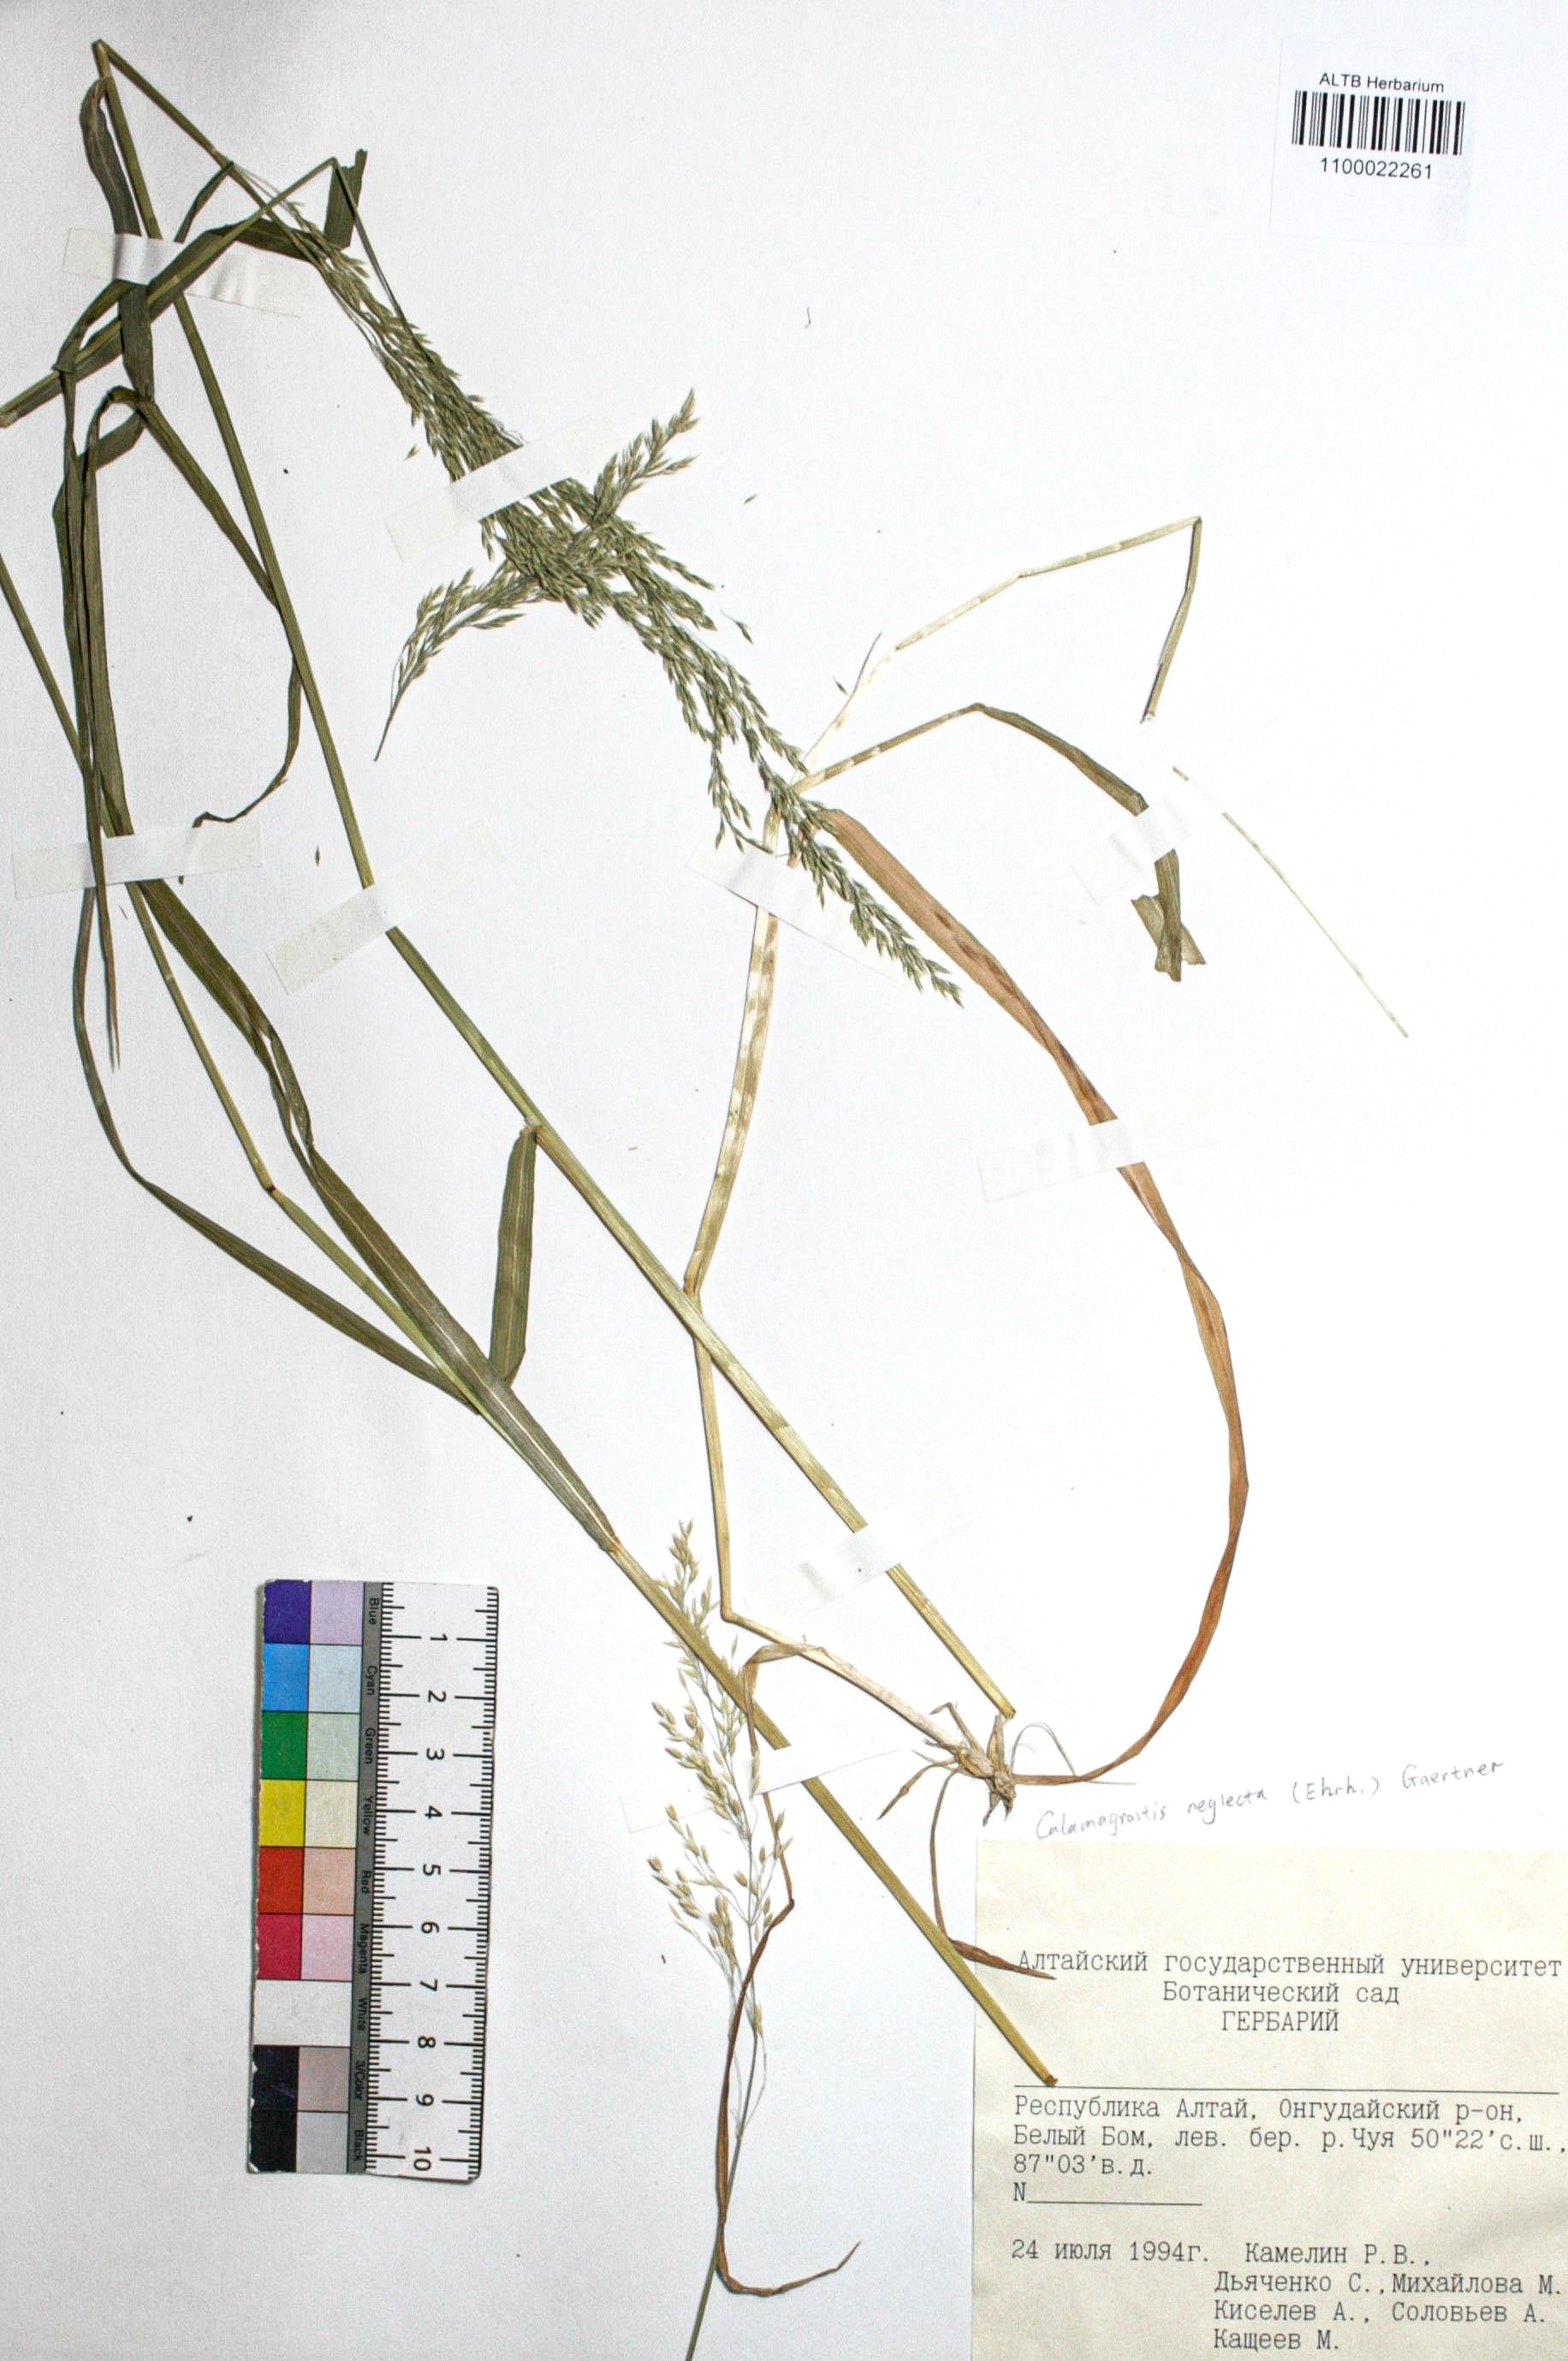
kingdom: Plantae
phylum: Tracheophyta
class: Liliopsida
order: Poales
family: Poaceae
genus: Achnatherum
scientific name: Achnatherum calamagrostis
